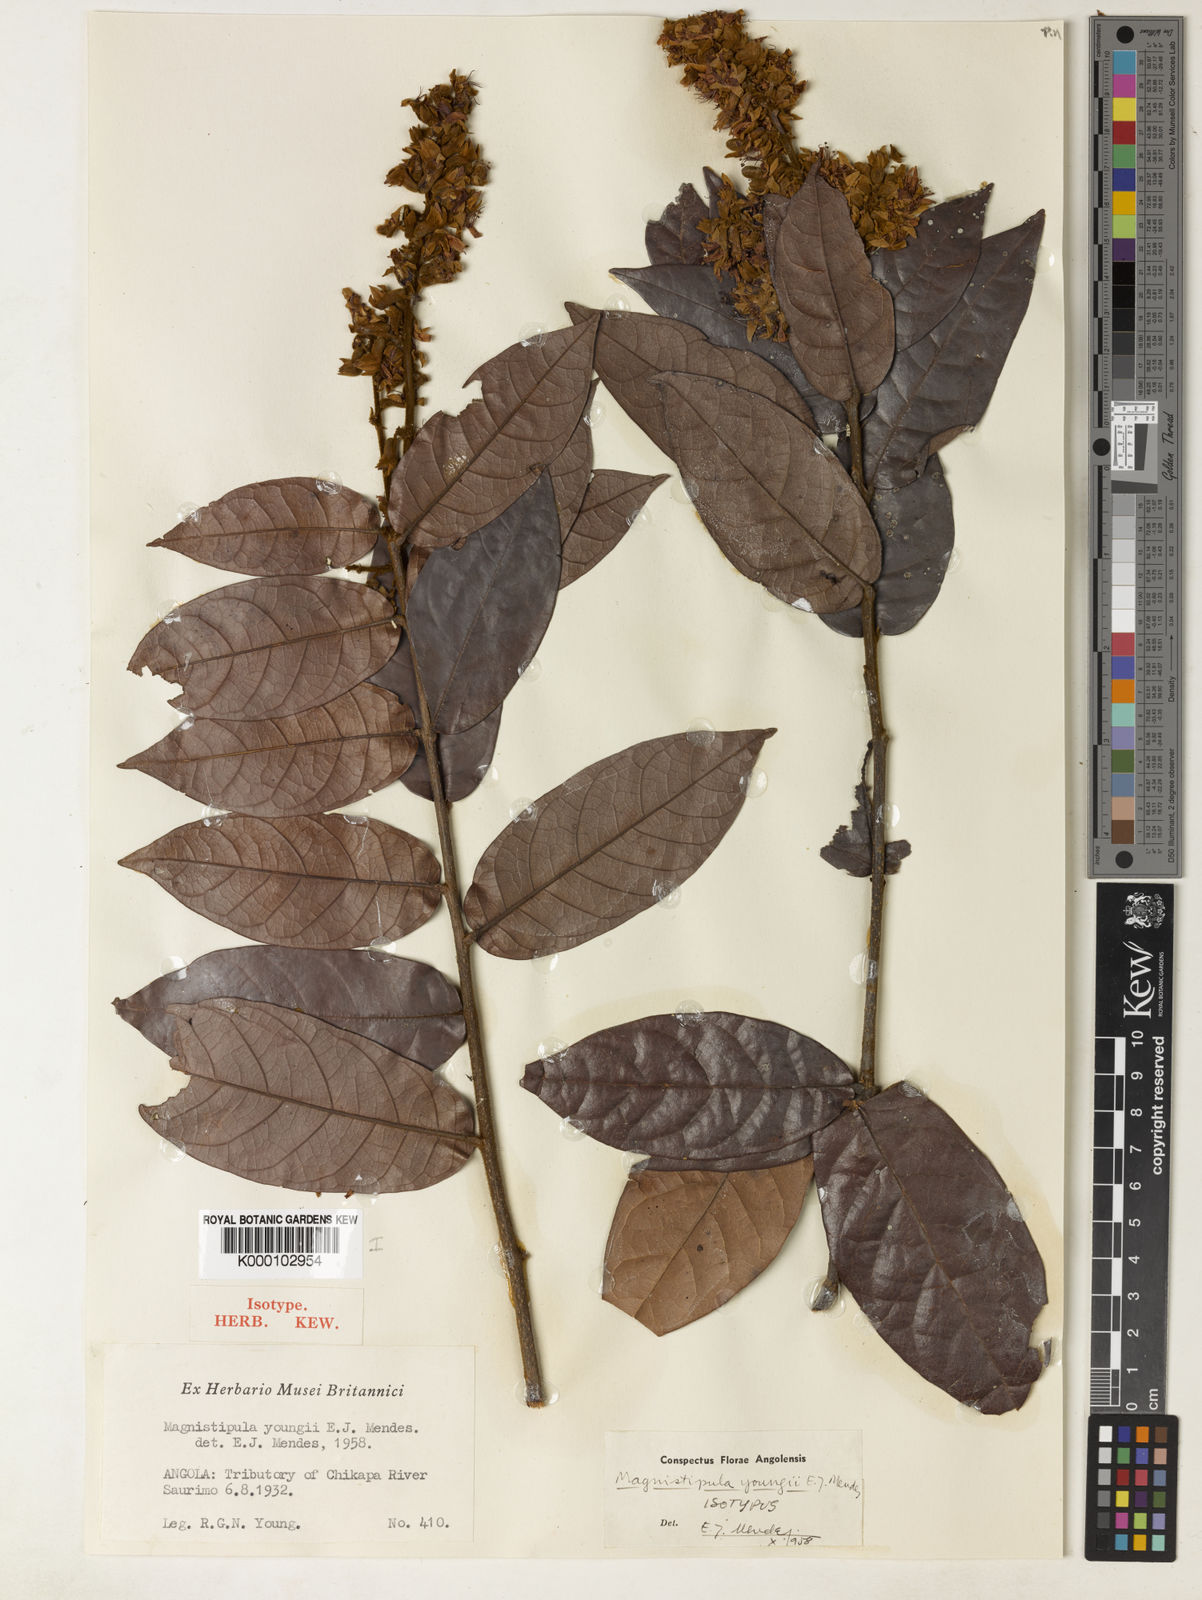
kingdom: Plantae
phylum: Tracheophyta
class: Magnoliopsida
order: Malpighiales
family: Chrysobalanaceae
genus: Magnistipula
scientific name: Magnistipula sapinii
